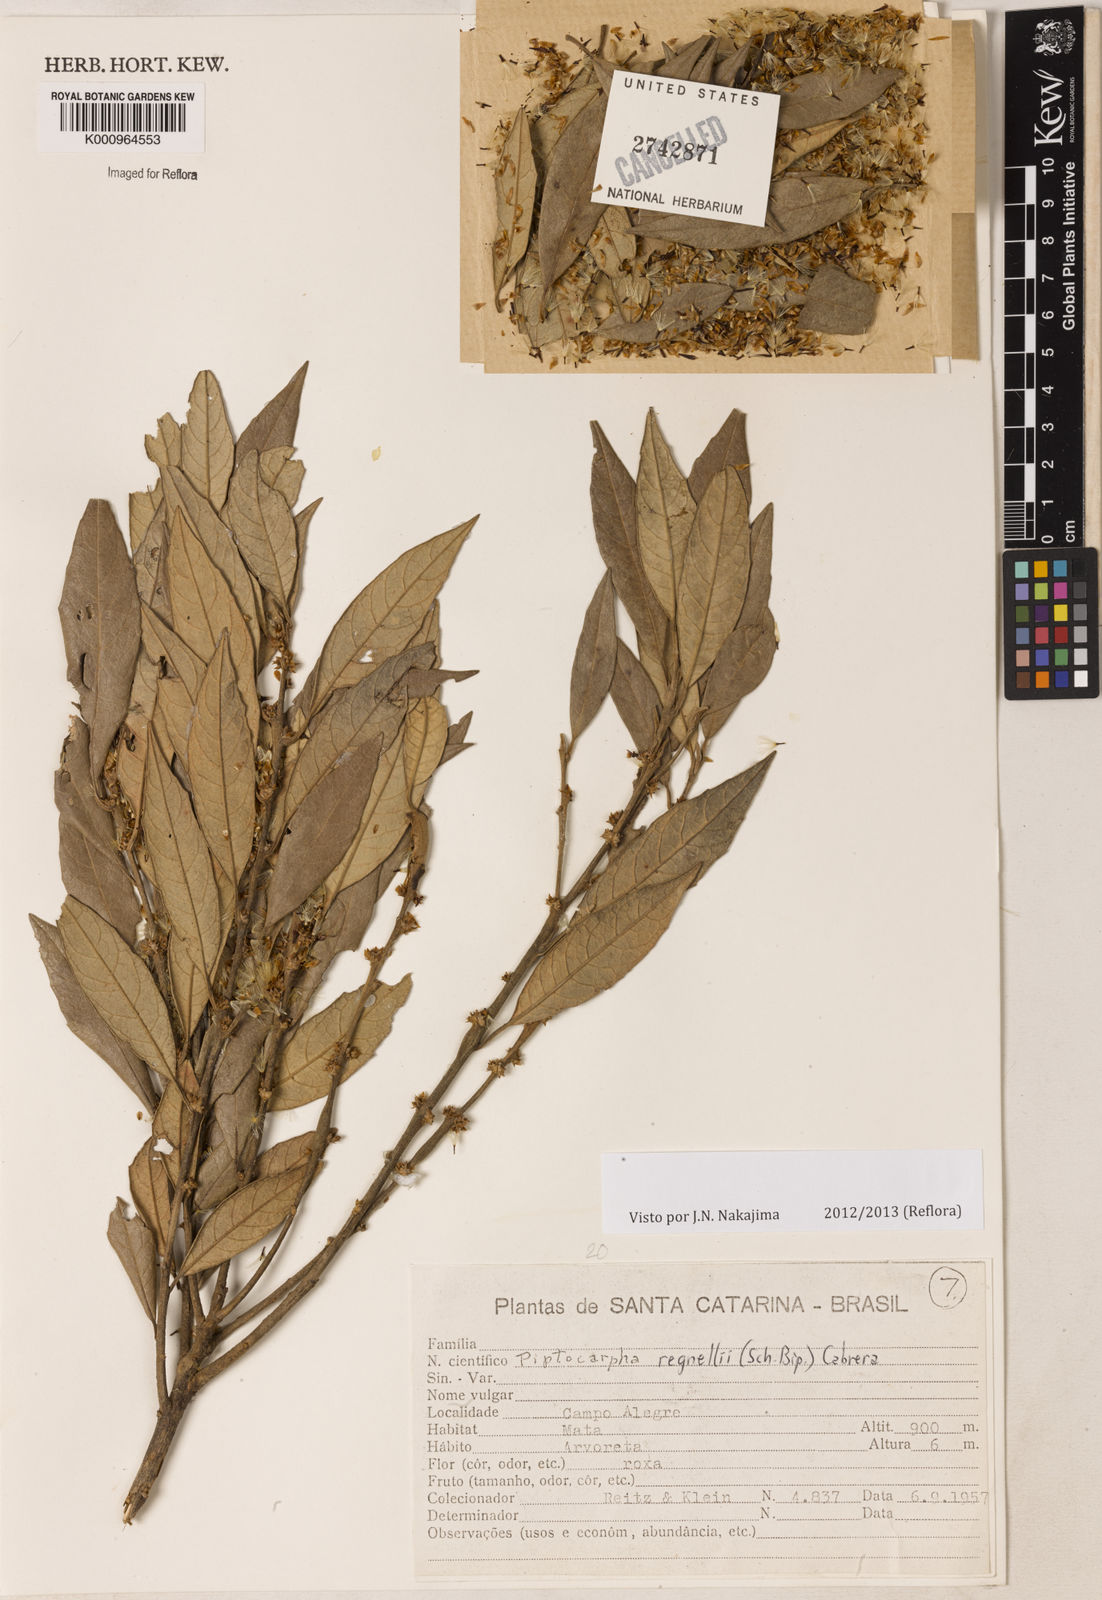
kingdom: Plantae
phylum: Tracheophyta
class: Magnoliopsida
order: Asterales
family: Asteraceae
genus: Piptocarpha
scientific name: Piptocarpha regnellii
